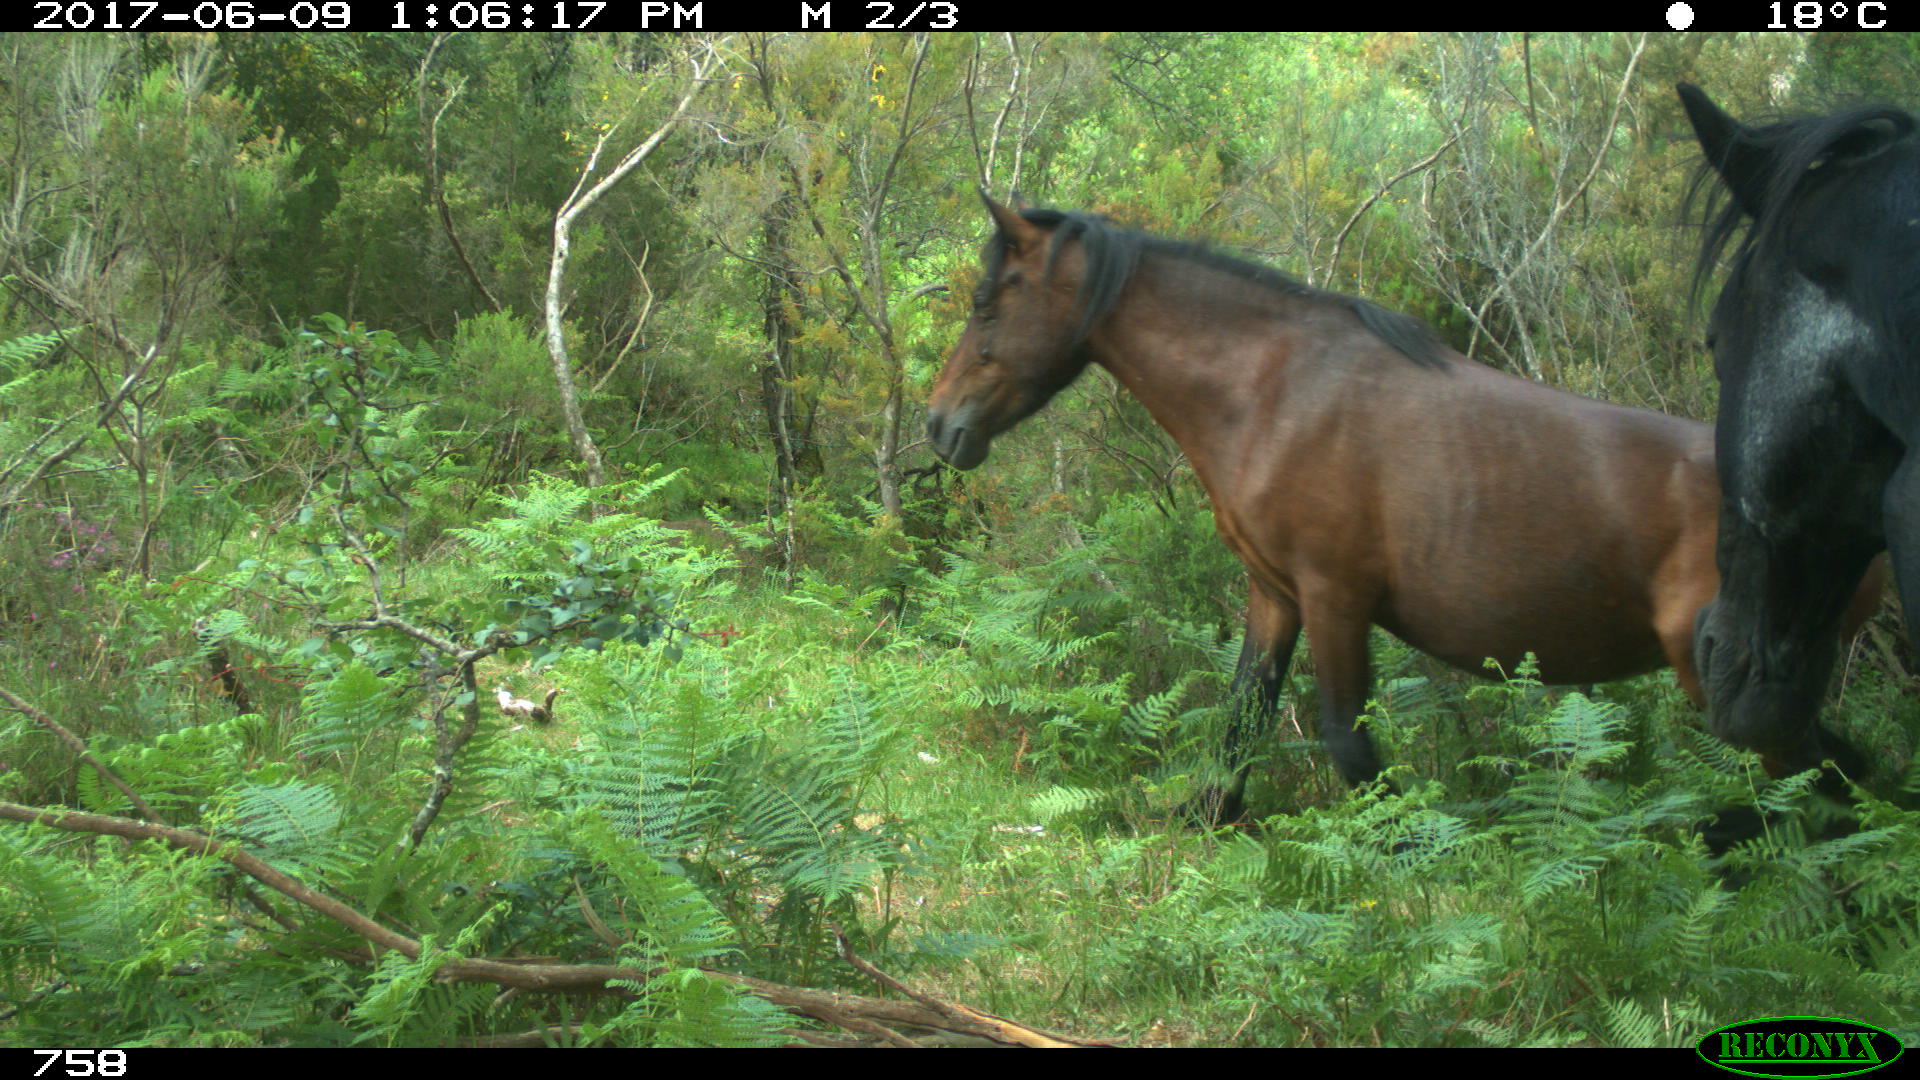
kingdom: Animalia
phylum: Chordata
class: Mammalia
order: Perissodactyla
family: Equidae
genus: Equus
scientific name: Equus caballus
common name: Horse
